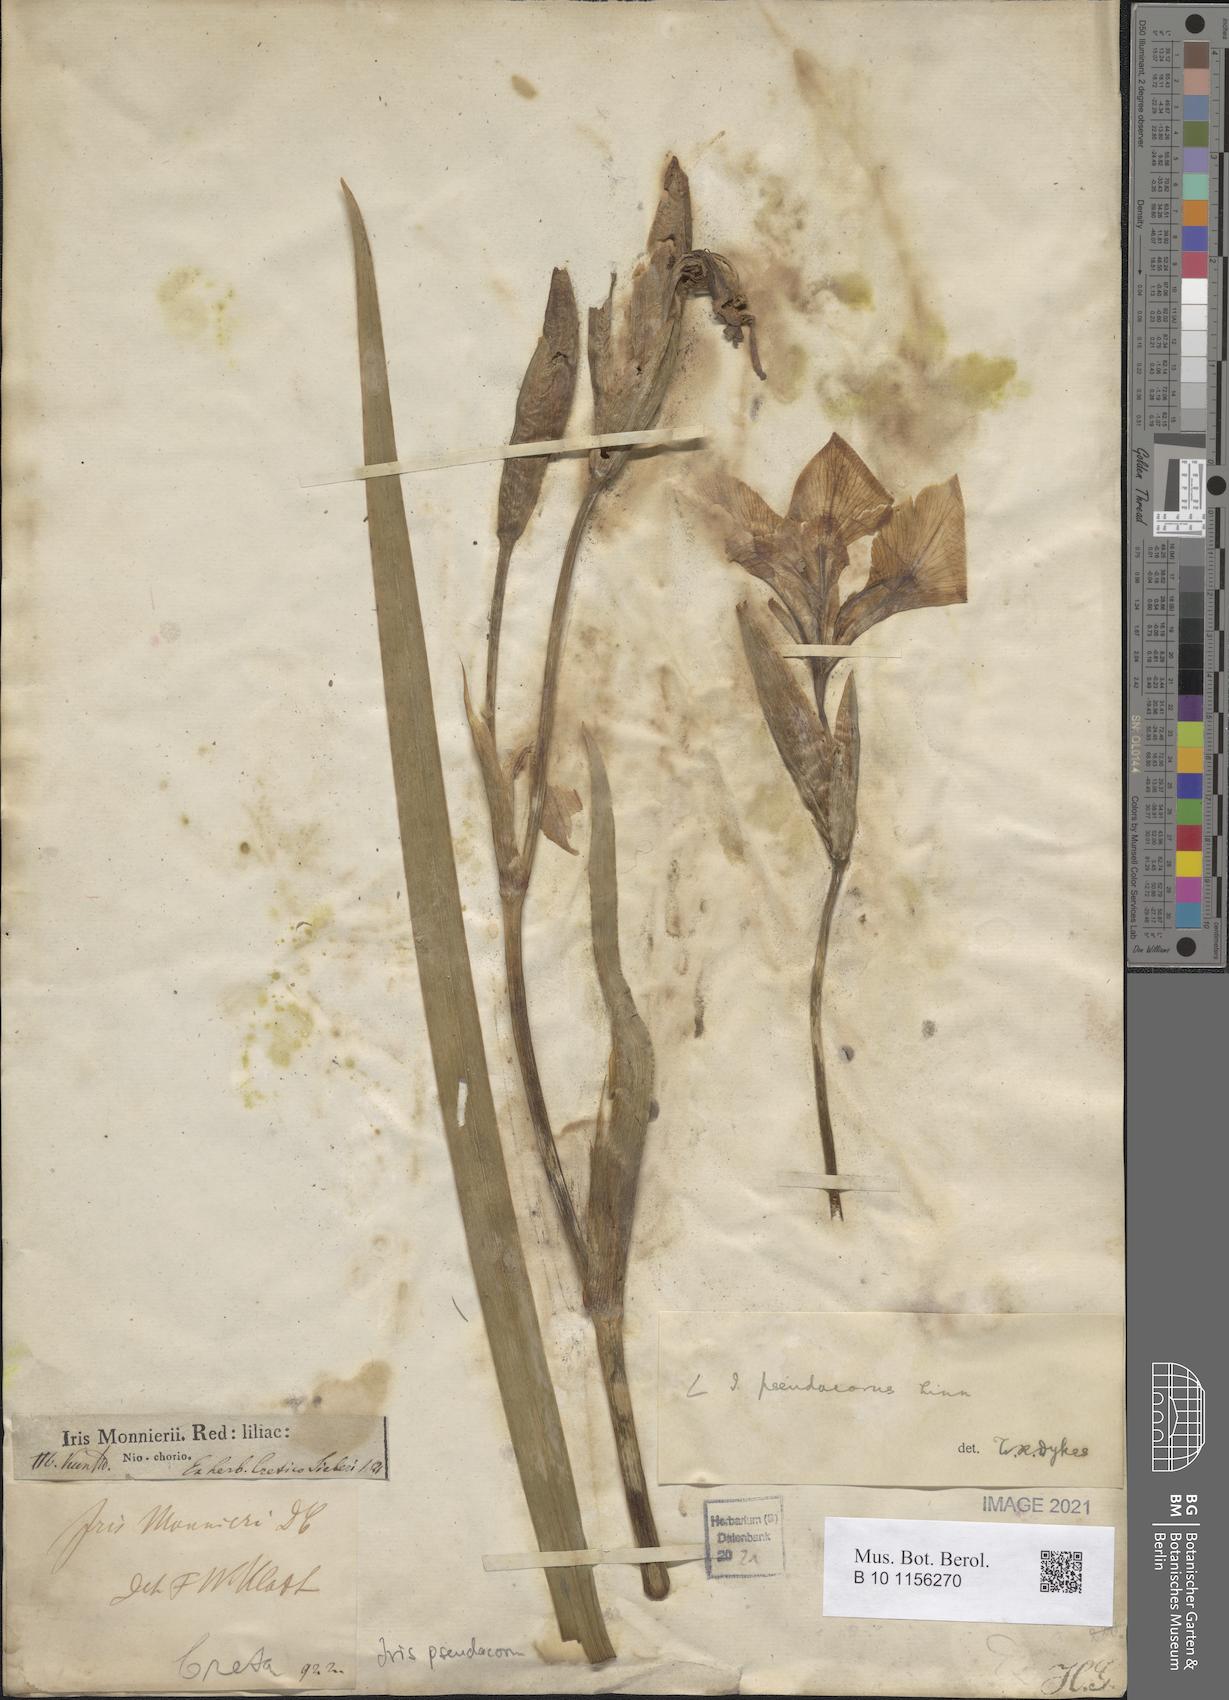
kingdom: Plantae
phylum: Tracheophyta
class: Liliopsida
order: Asparagales
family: Iridaceae
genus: Iris
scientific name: Iris pseudacorus
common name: Yellow flag
